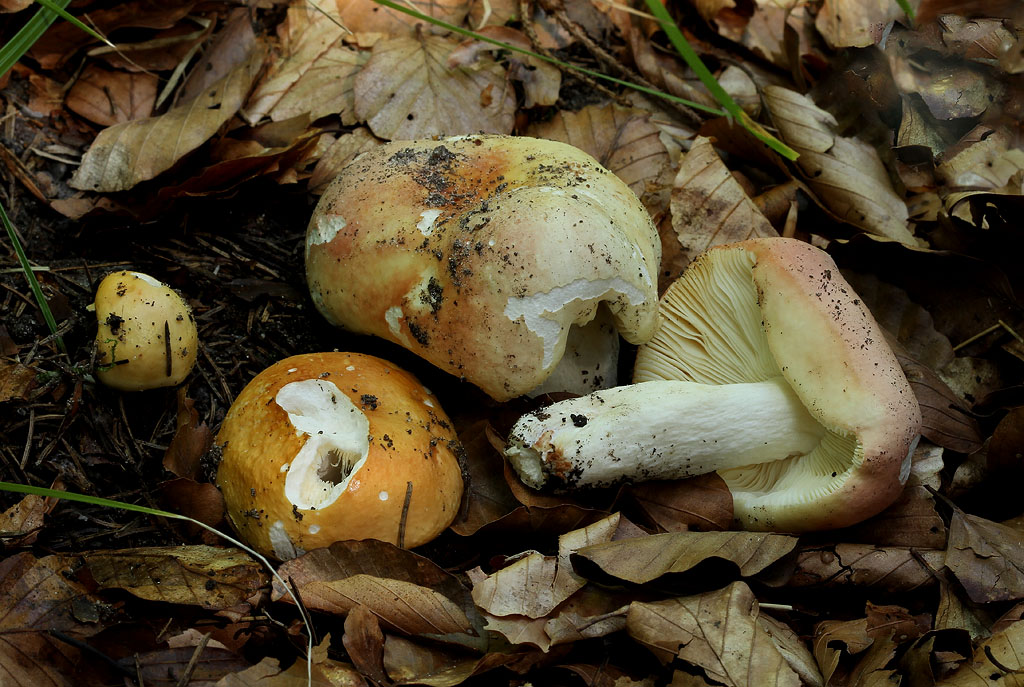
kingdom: Fungi
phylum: Basidiomycota
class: Agaricomycetes
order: Russulales
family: Russulaceae
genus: Russula
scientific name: Russula risigallina
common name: abrikos-skørhat
